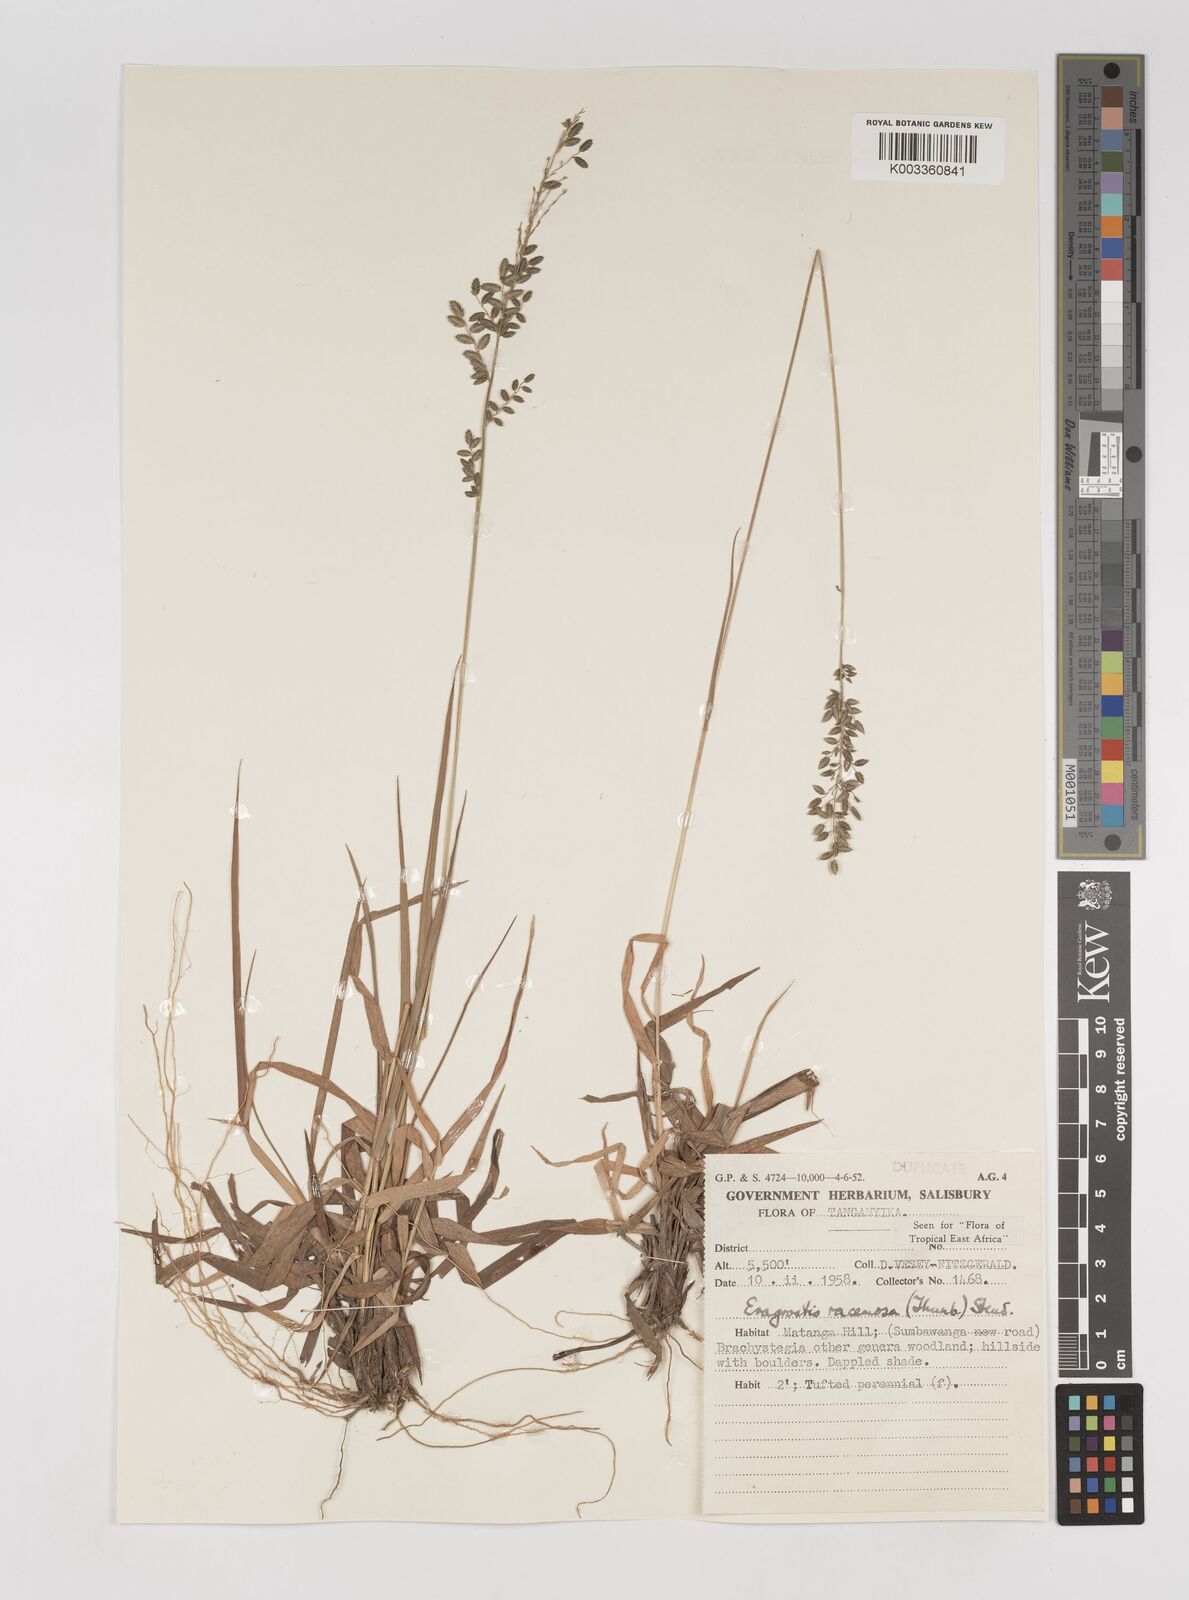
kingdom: Plantae
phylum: Tracheophyta
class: Liliopsida
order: Poales
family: Poaceae
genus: Eragrostis
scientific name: Eragrostis racemosa
